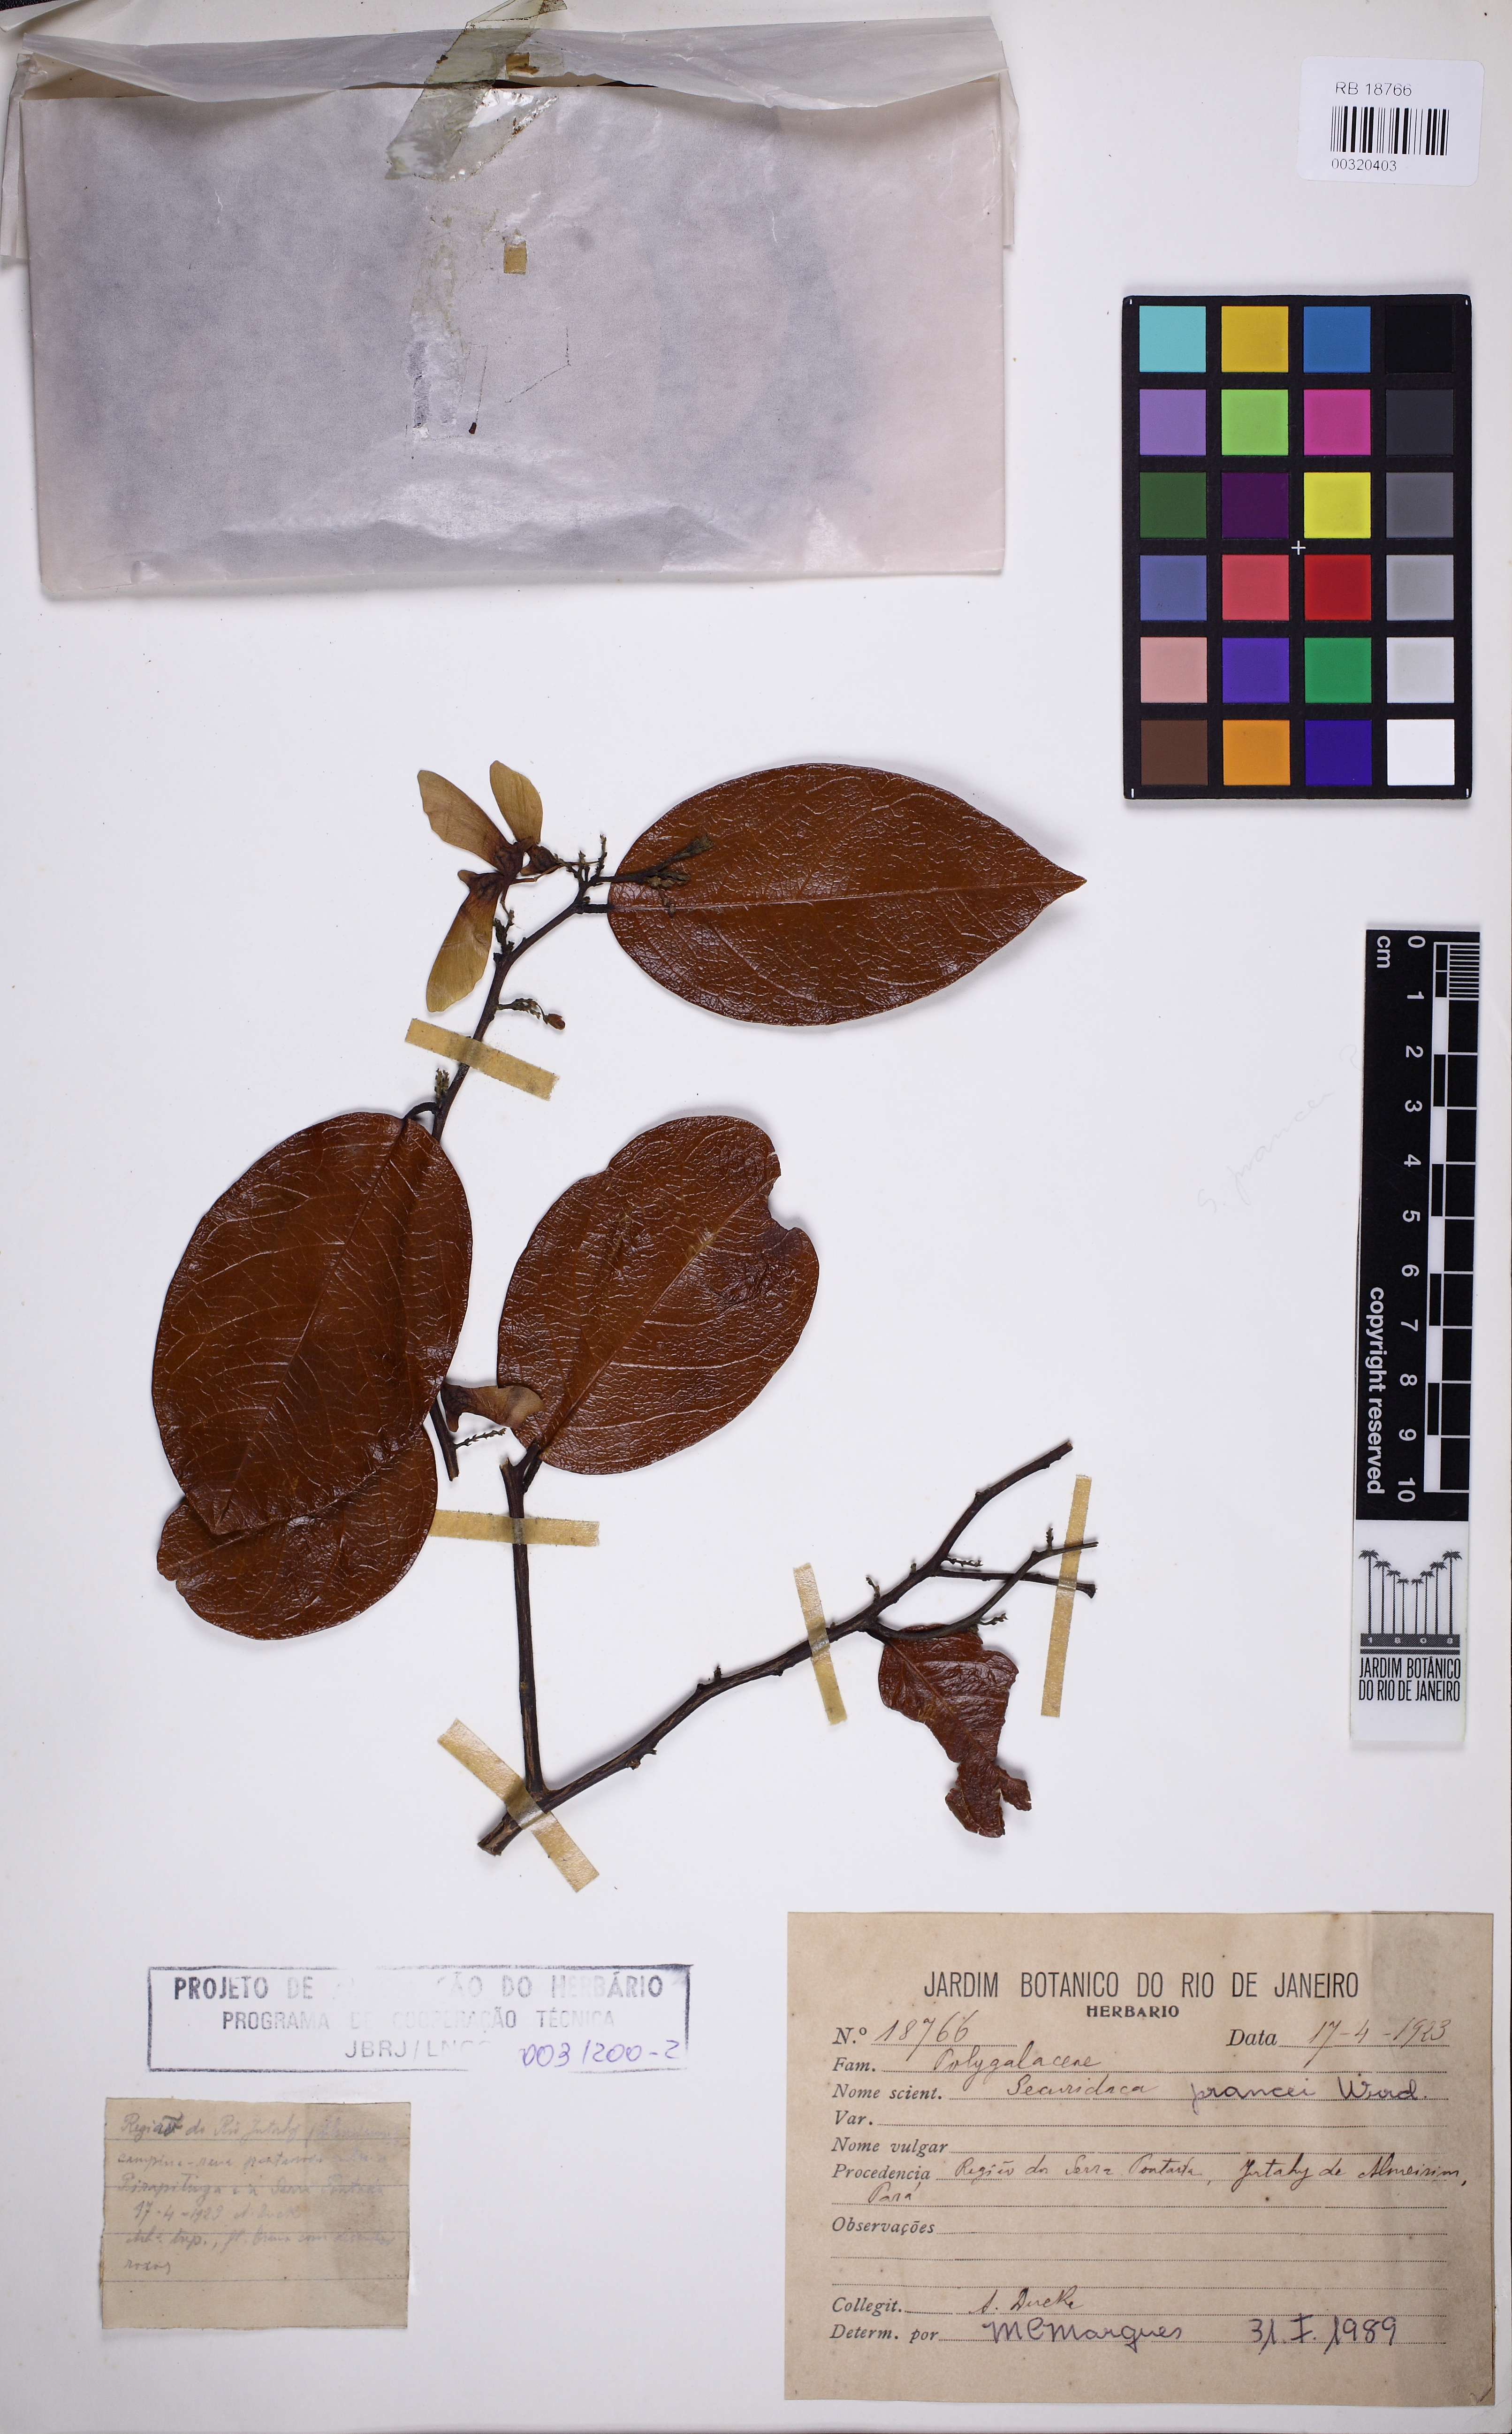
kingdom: Plantae
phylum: Tracheophyta
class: Magnoliopsida
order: Fabales
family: Polygalaceae
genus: Securidaca
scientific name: Securidaca prancei
